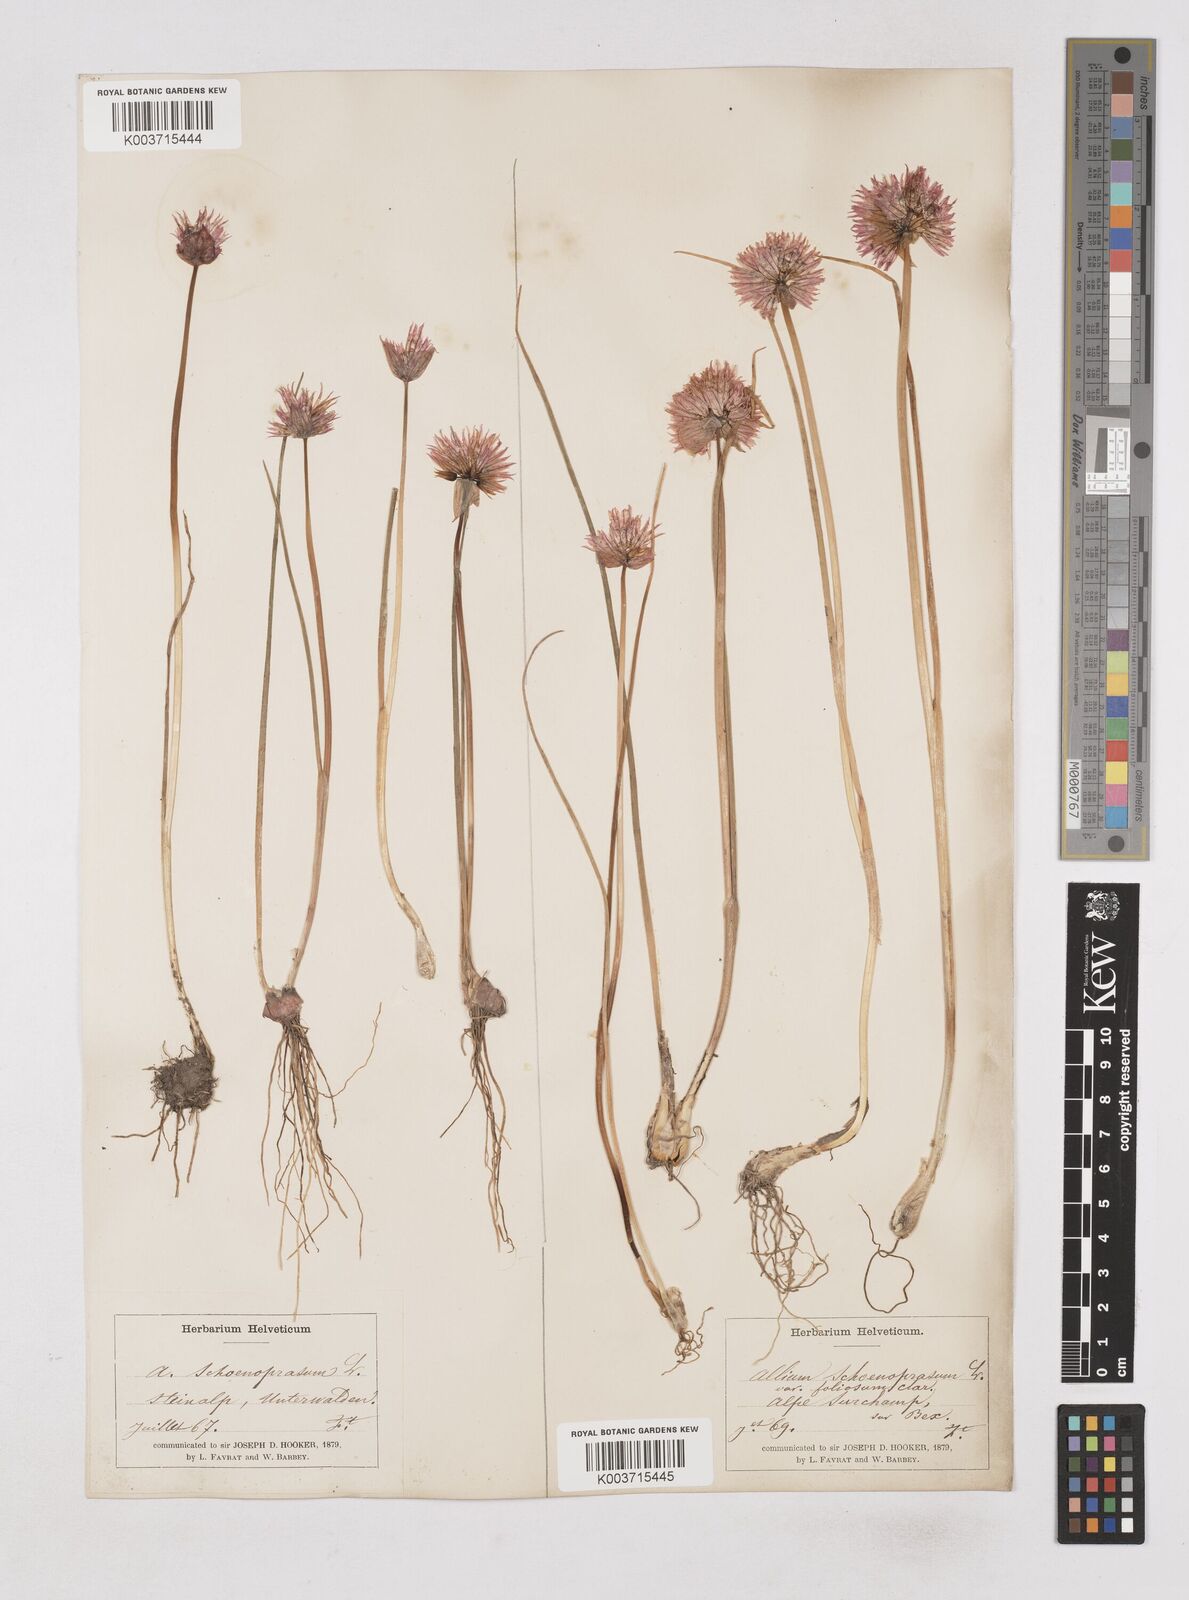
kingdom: Plantae
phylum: Tracheophyta
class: Liliopsida
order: Asparagales
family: Amaryllidaceae
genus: Allium
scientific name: Allium schoenoprasum
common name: Chives
